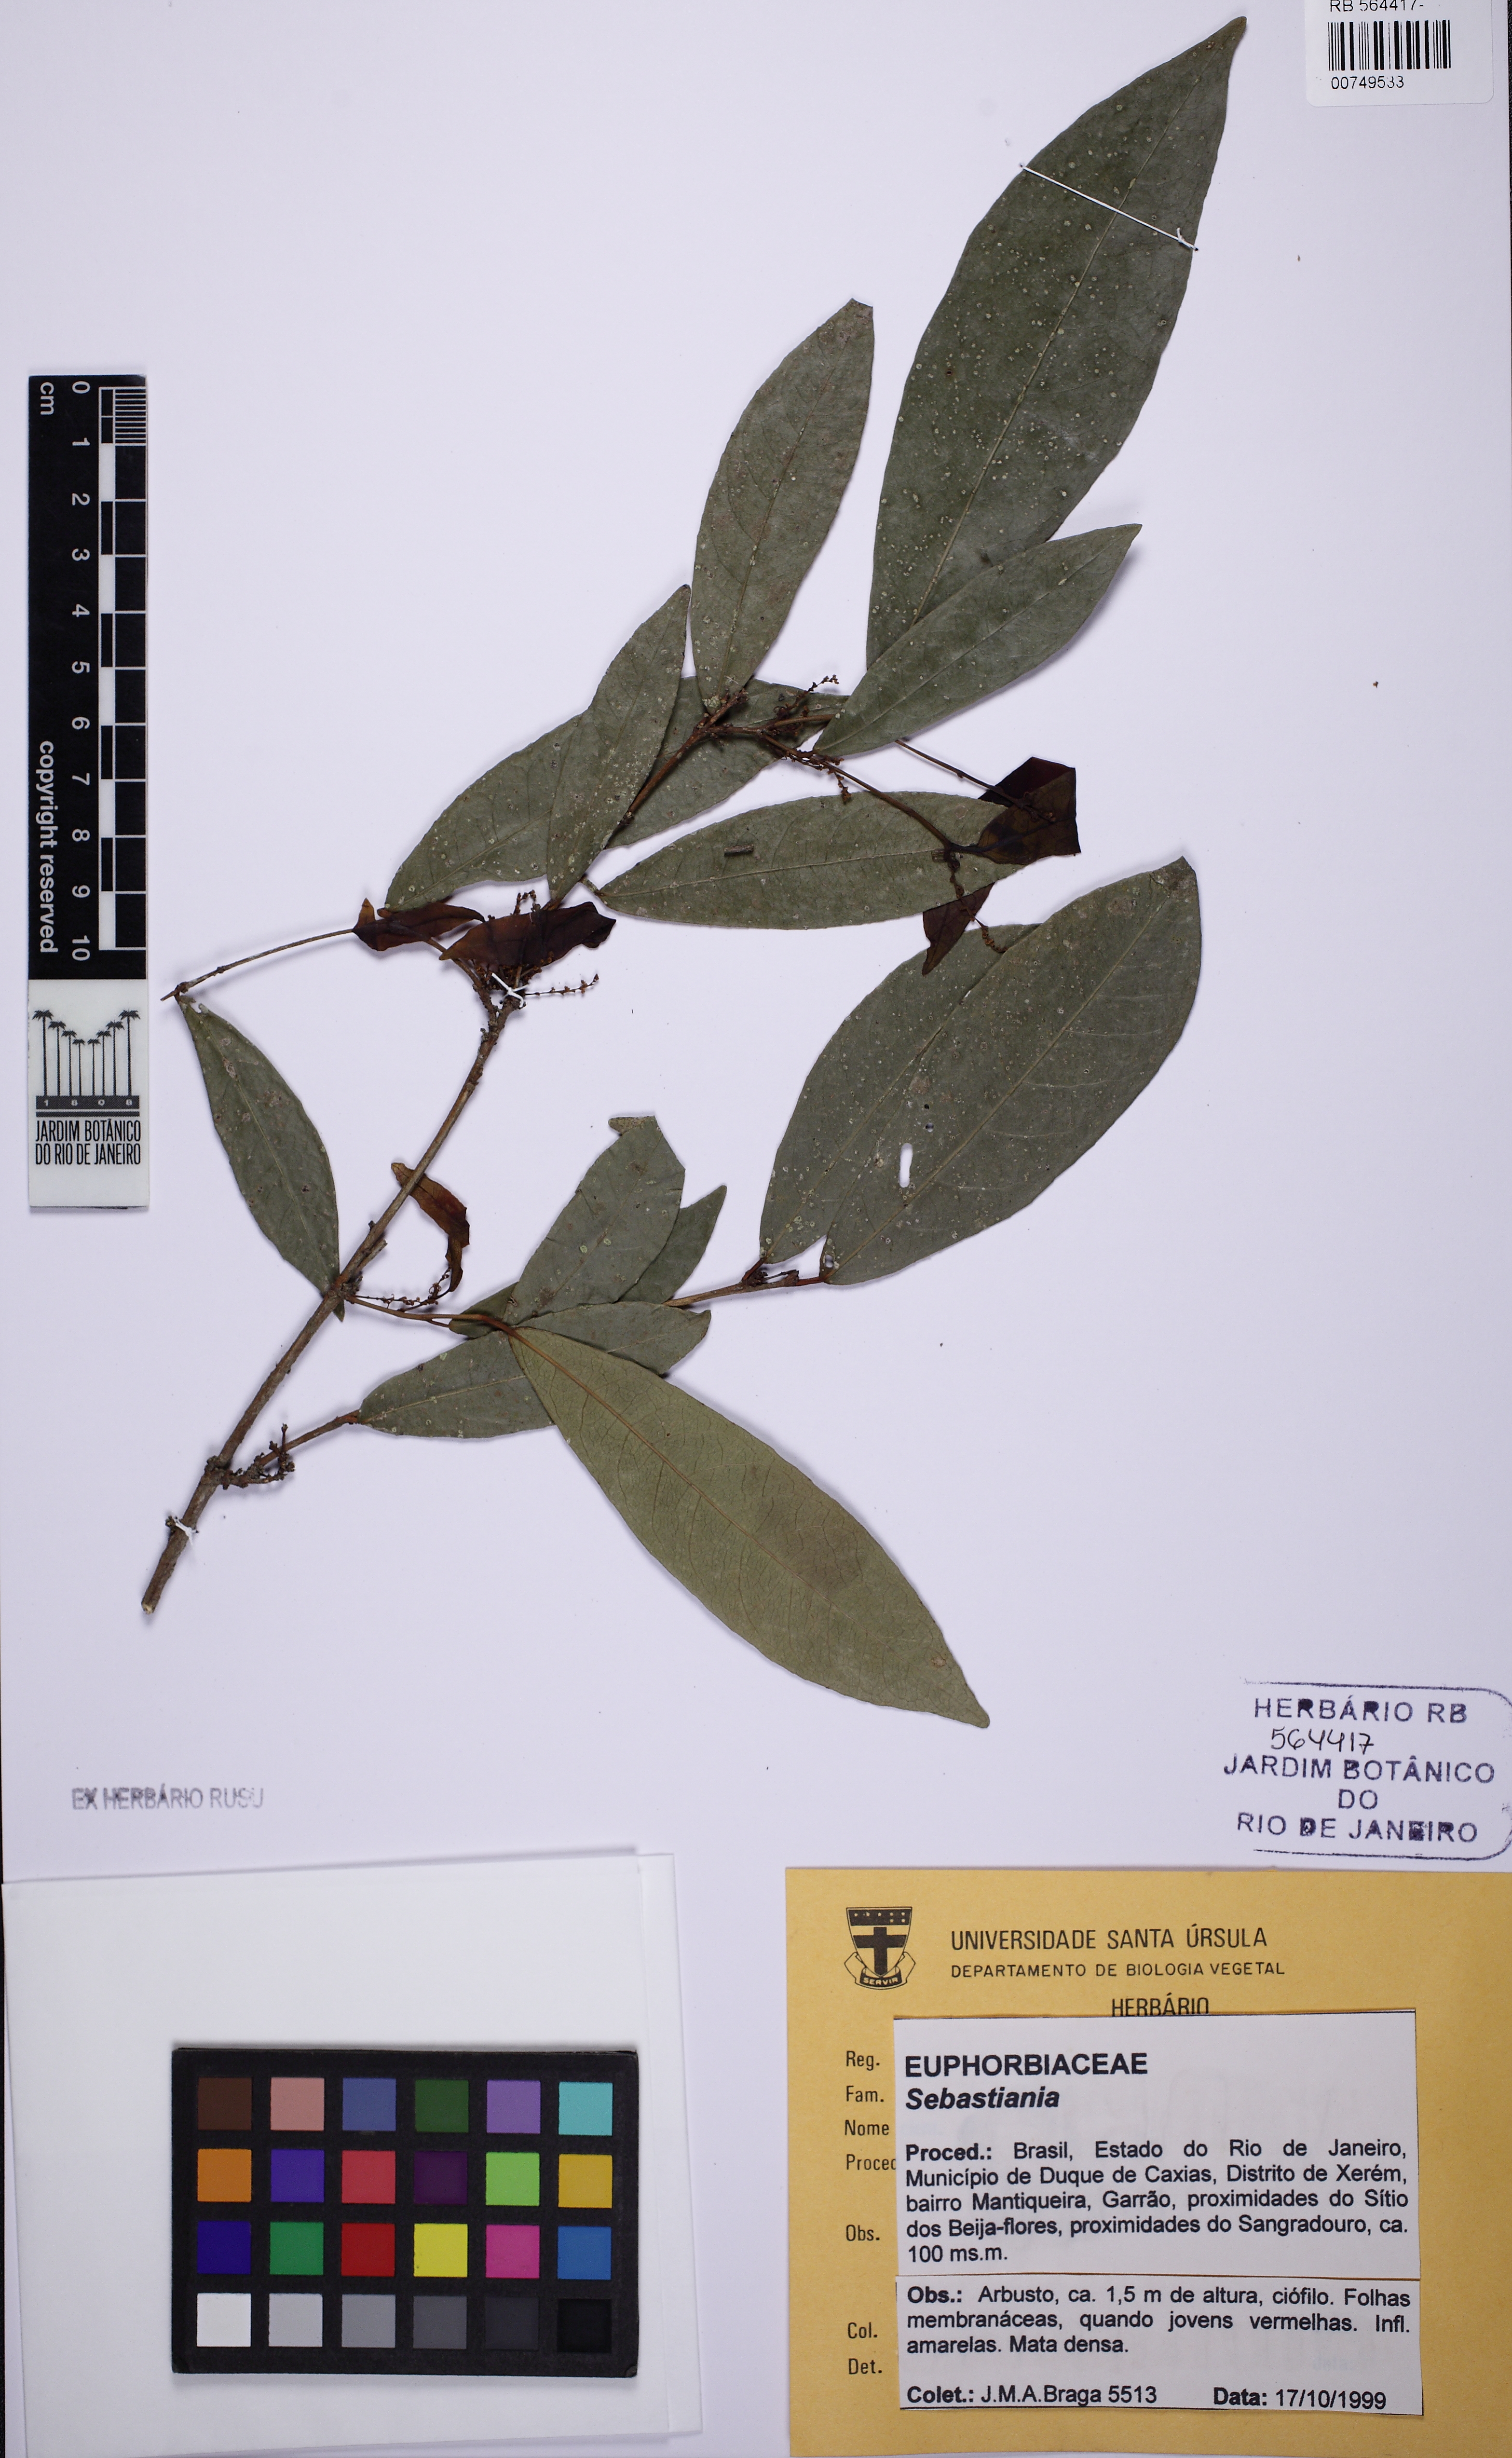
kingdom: Plantae
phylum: Tracheophyta
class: Magnoliopsida
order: Malpighiales
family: Euphorbiaceae
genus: Sebastiania
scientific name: Sebastiania
